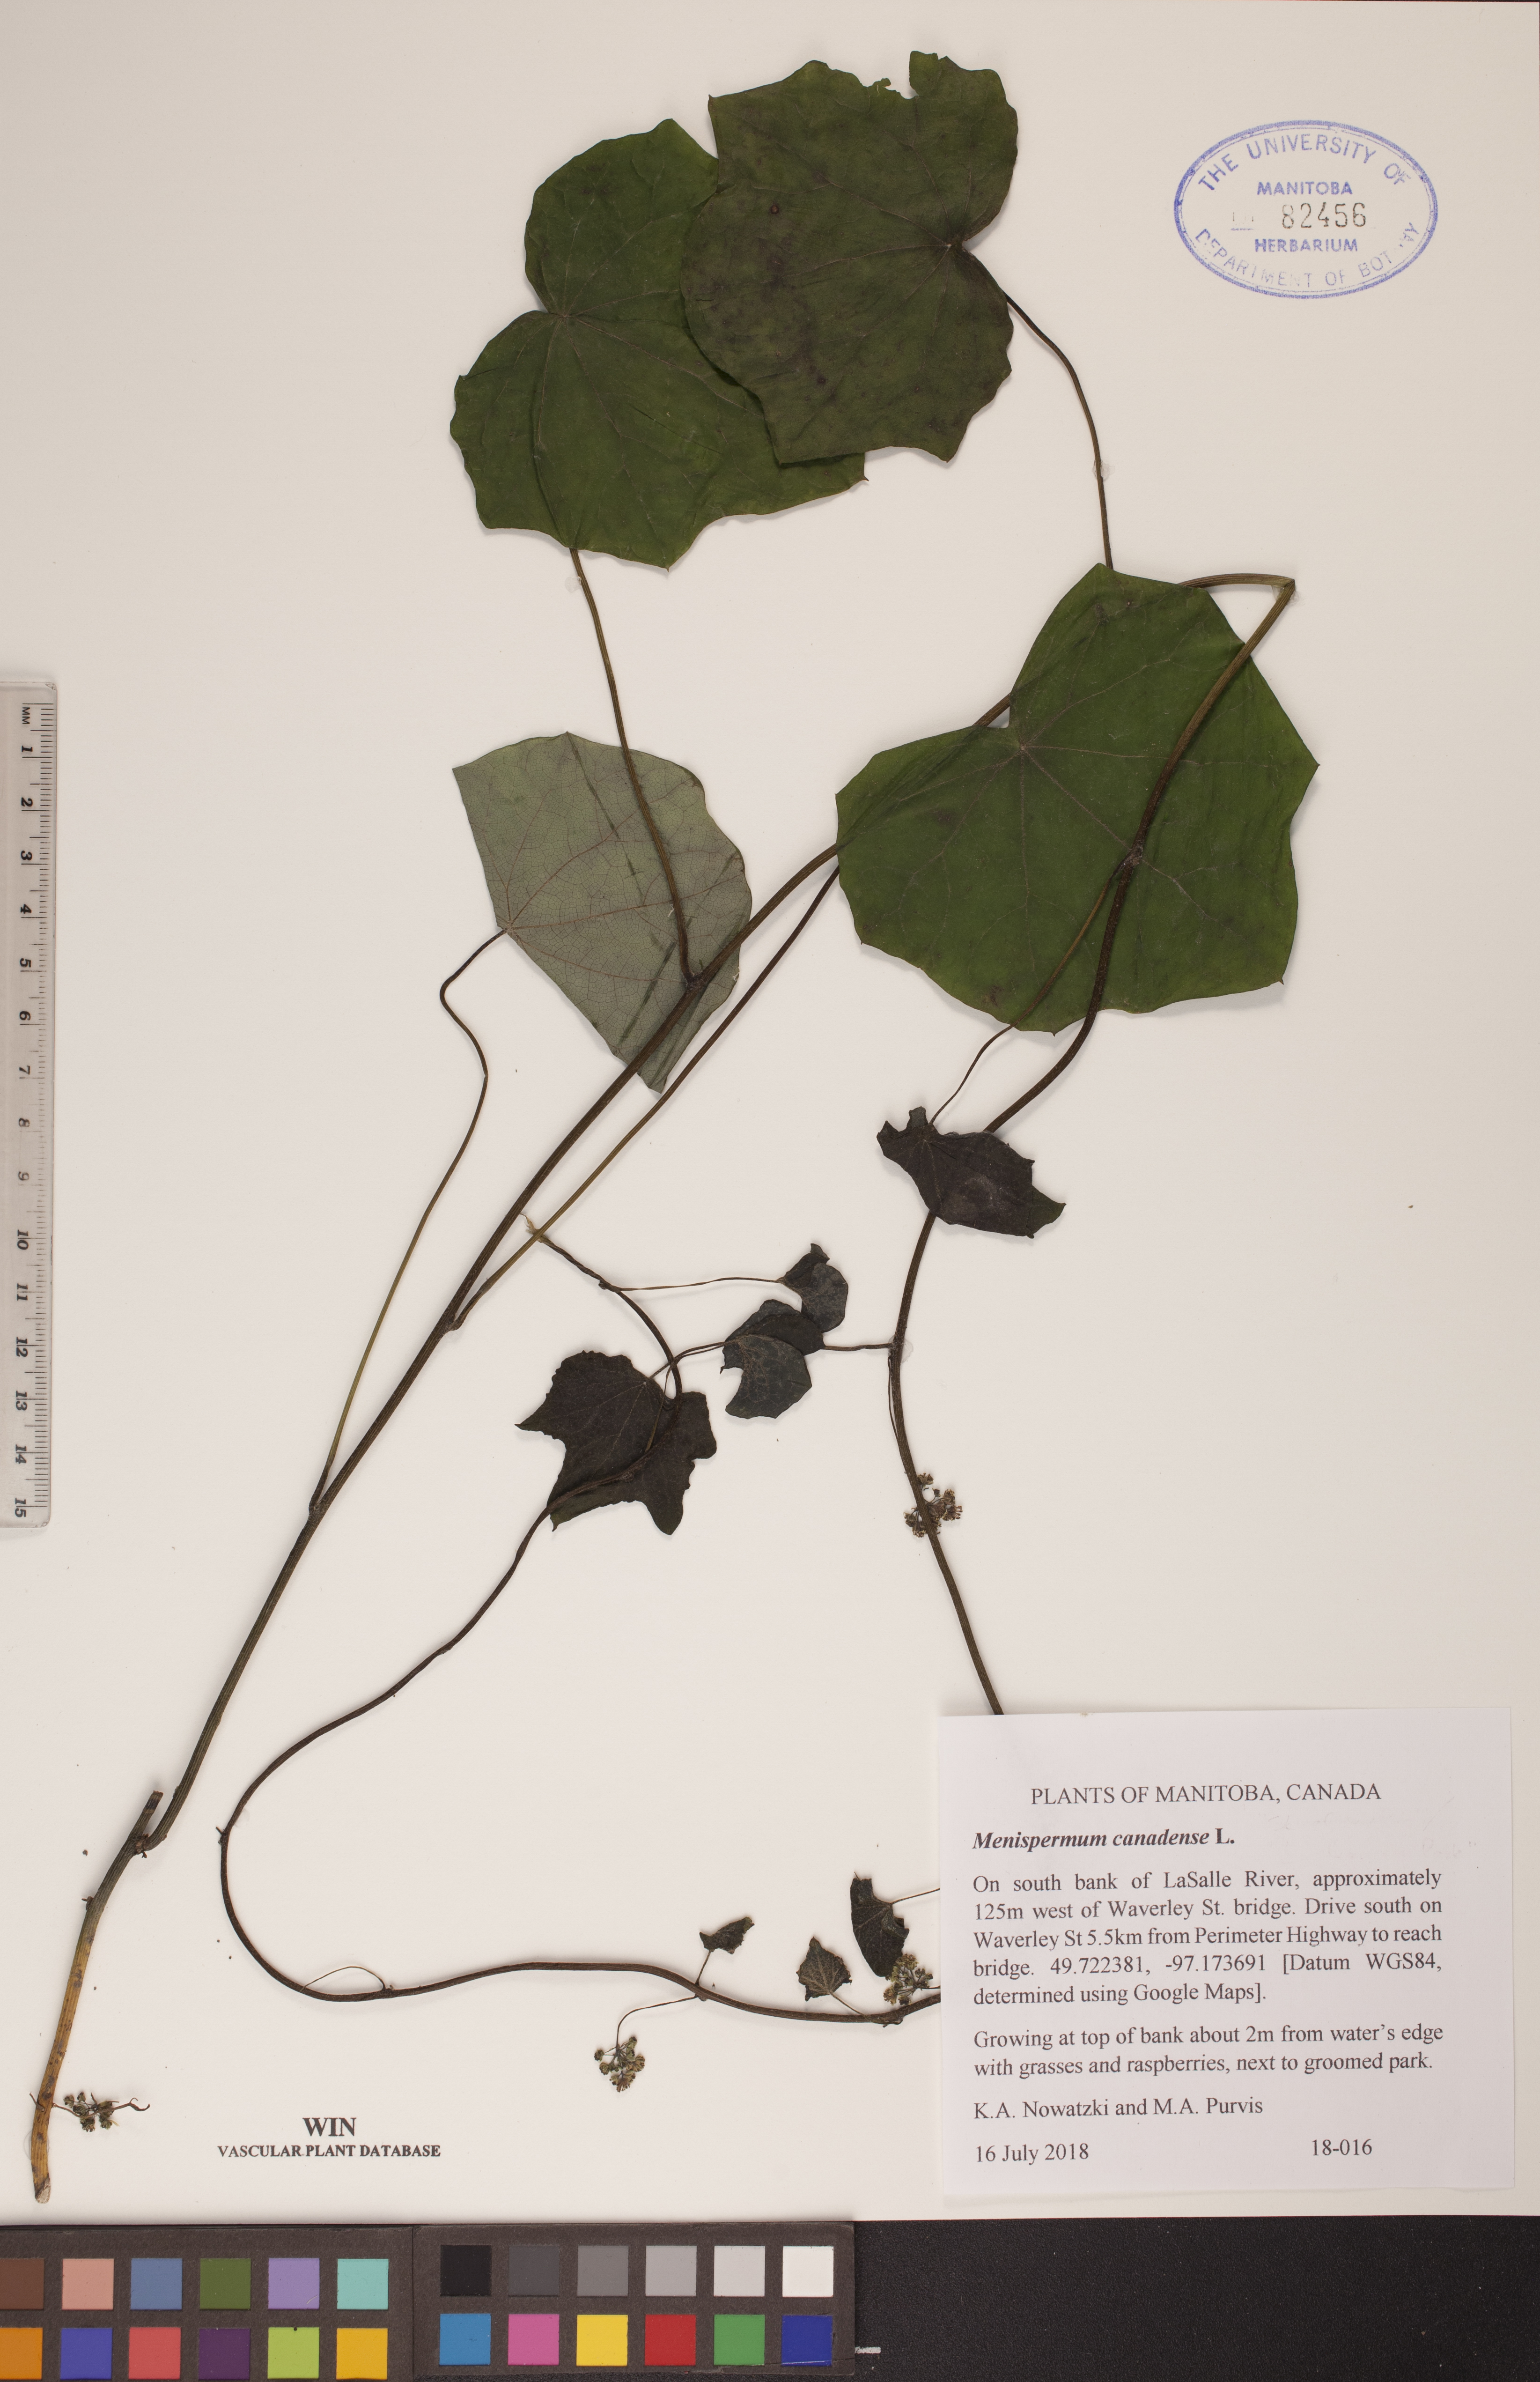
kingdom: Plantae
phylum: Tracheophyta
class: Magnoliopsida
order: Ranunculales
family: Menispermaceae
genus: Menispermum
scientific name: Menispermum canadense
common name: Moonseed
